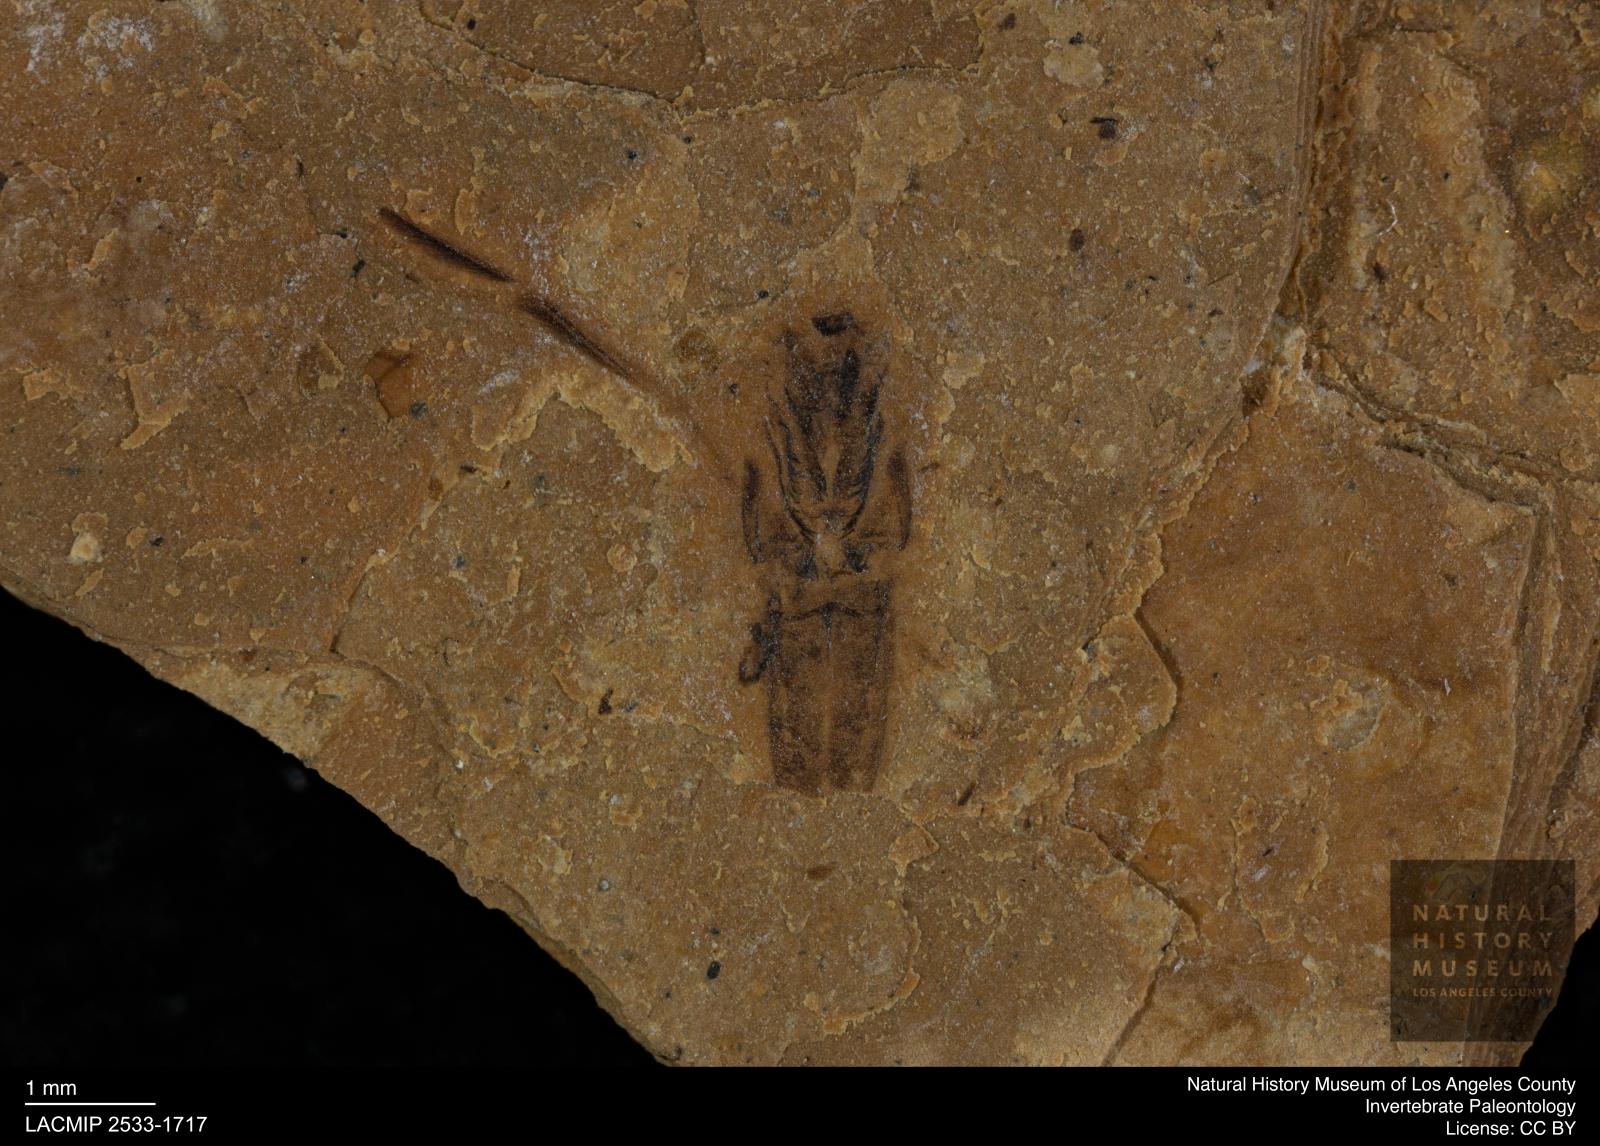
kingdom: Animalia
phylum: Arthropoda
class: Insecta
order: Hemiptera
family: Notonectidae
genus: Notonecta
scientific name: Notonecta
